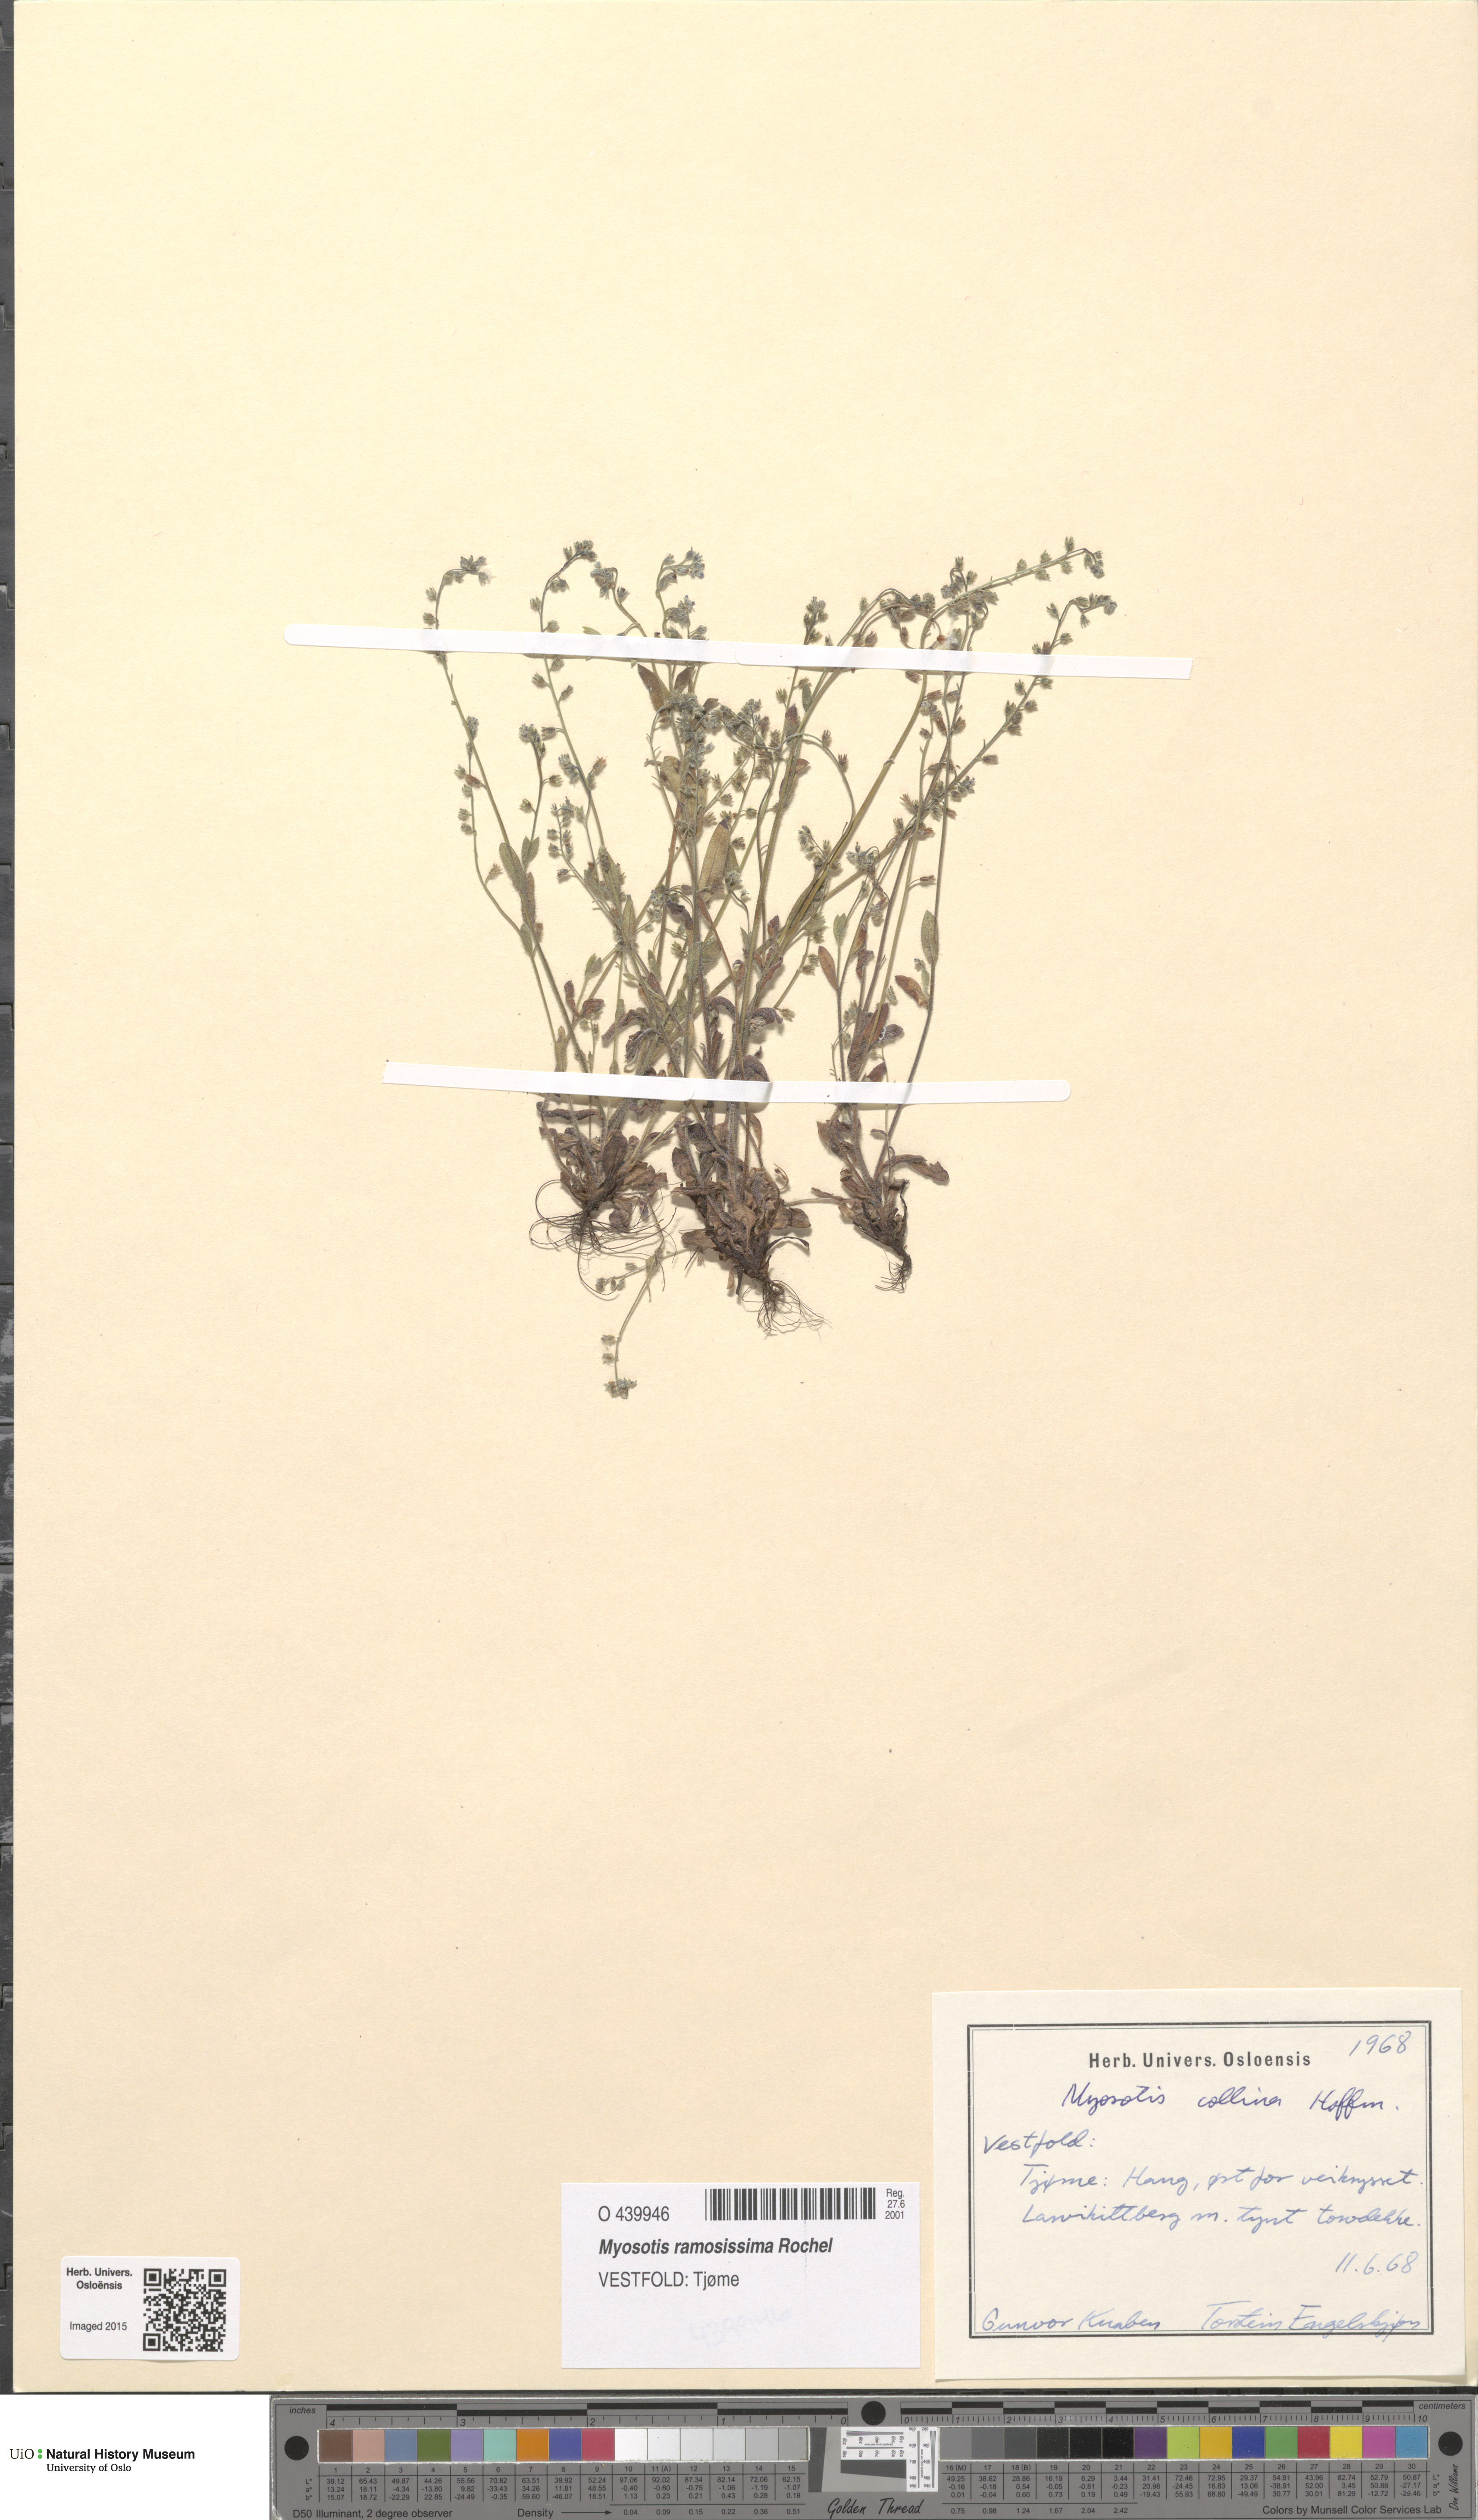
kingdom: Plantae
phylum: Tracheophyta
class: Magnoliopsida
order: Boraginales
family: Boraginaceae
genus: Myosotis
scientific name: Myosotis ramosissima
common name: Early forget-me-not
